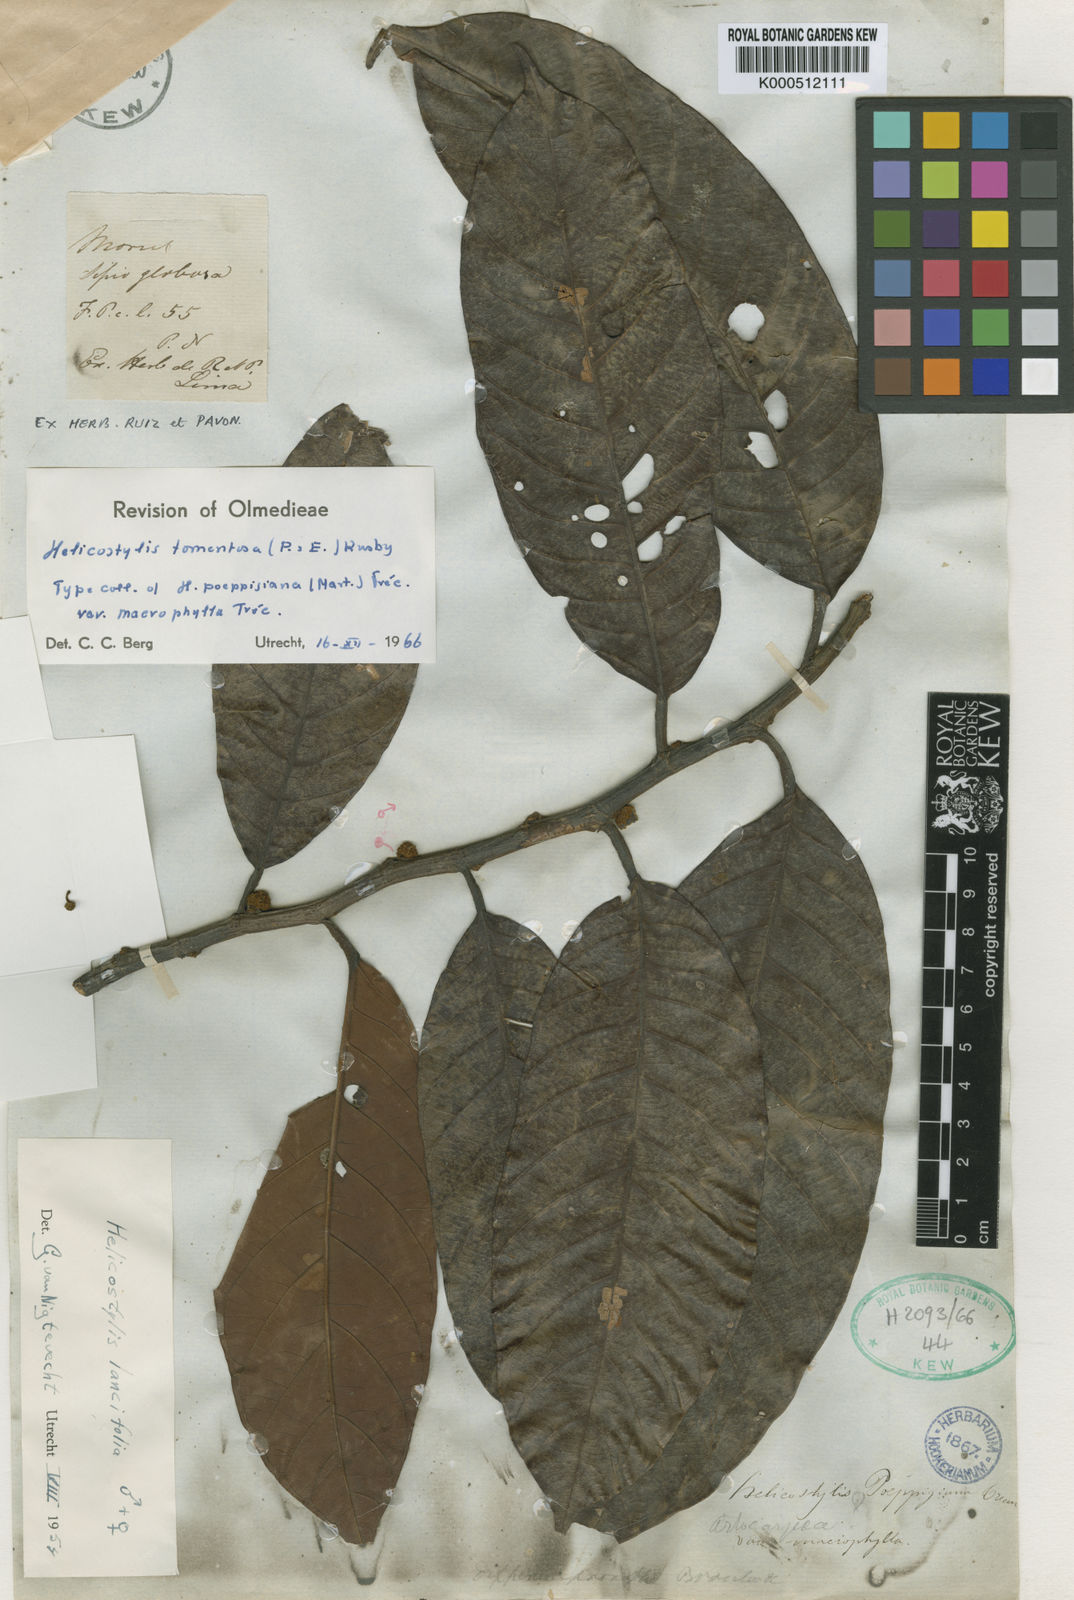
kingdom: Plantae
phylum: Tracheophyta
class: Magnoliopsida
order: Rosales
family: Moraceae
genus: Helicostylis
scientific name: Helicostylis
